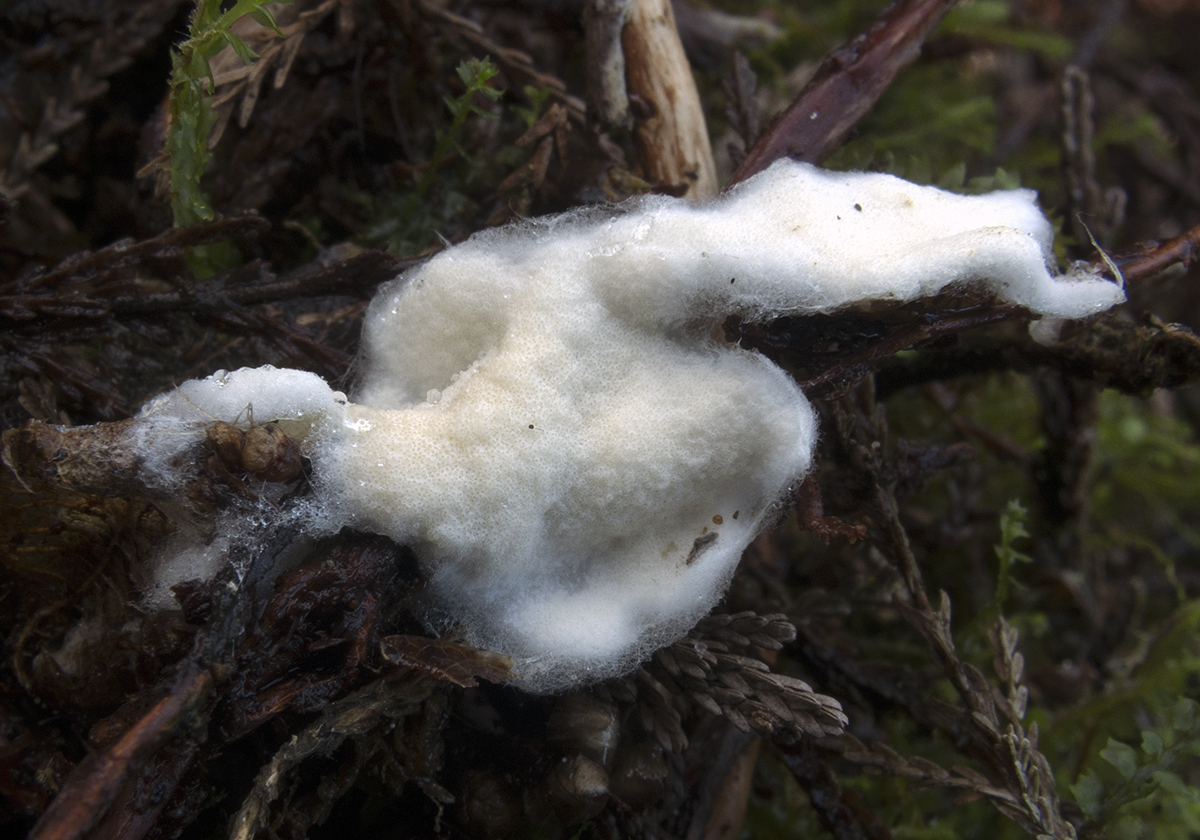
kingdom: Fungi
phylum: Ascomycota
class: Sordariomycetes
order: Hypocreales
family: Hypocreaceae
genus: Trichoderma
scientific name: Trichoderma delicatulum
